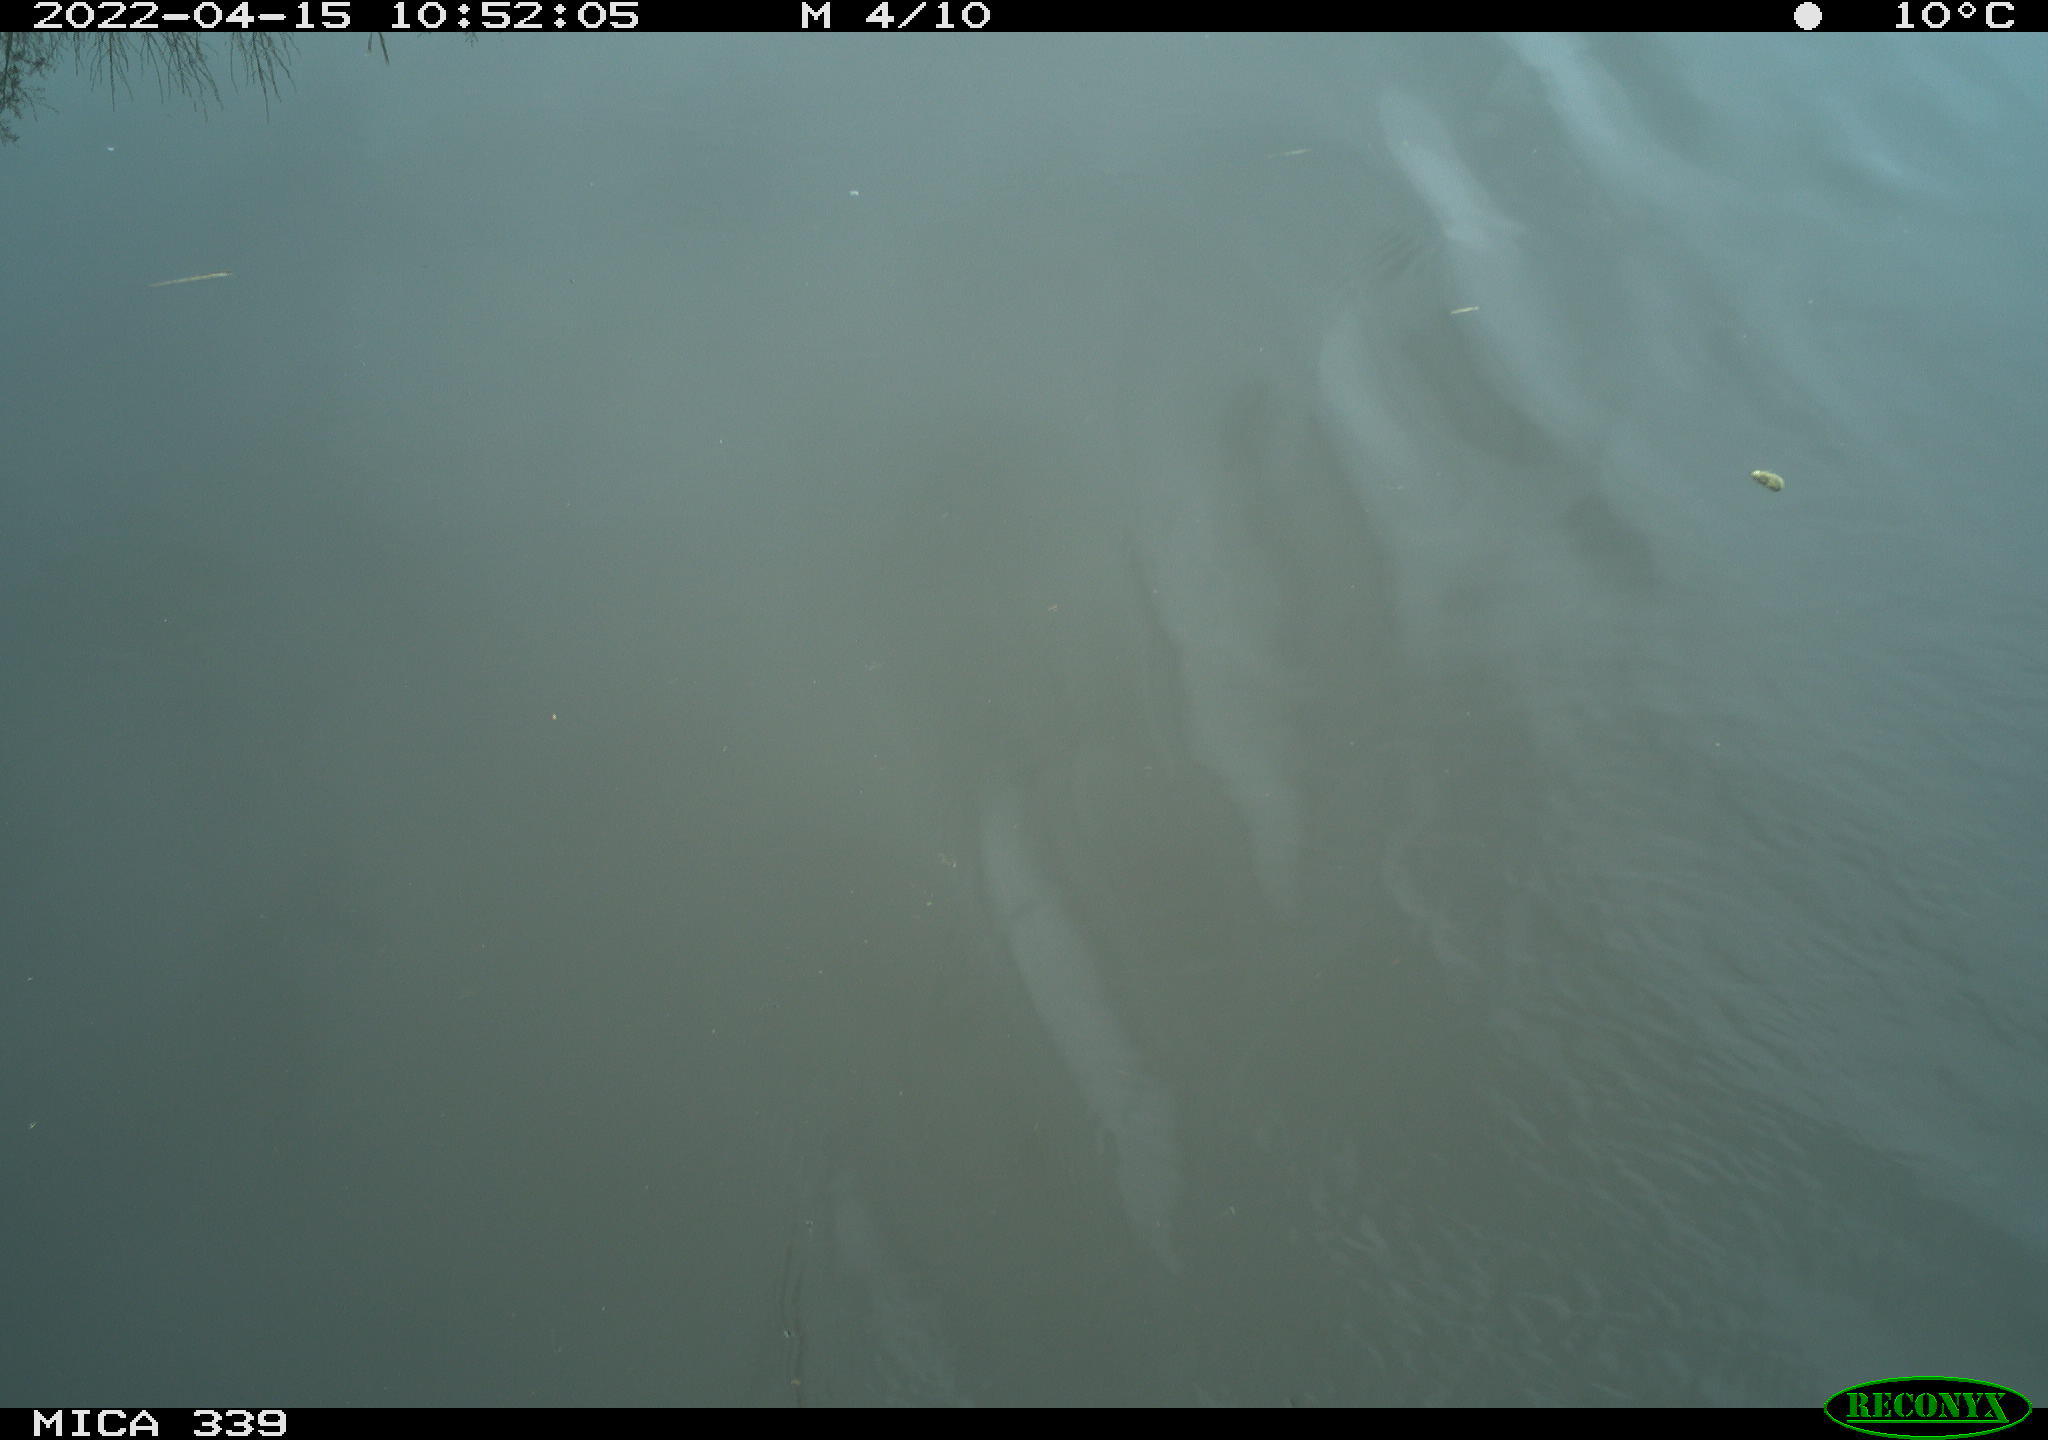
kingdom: Animalia
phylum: Chordata
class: Aves
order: Anseriformes
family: Anatidae
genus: Anas
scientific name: Anas platyrhynchos
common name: Mallard
